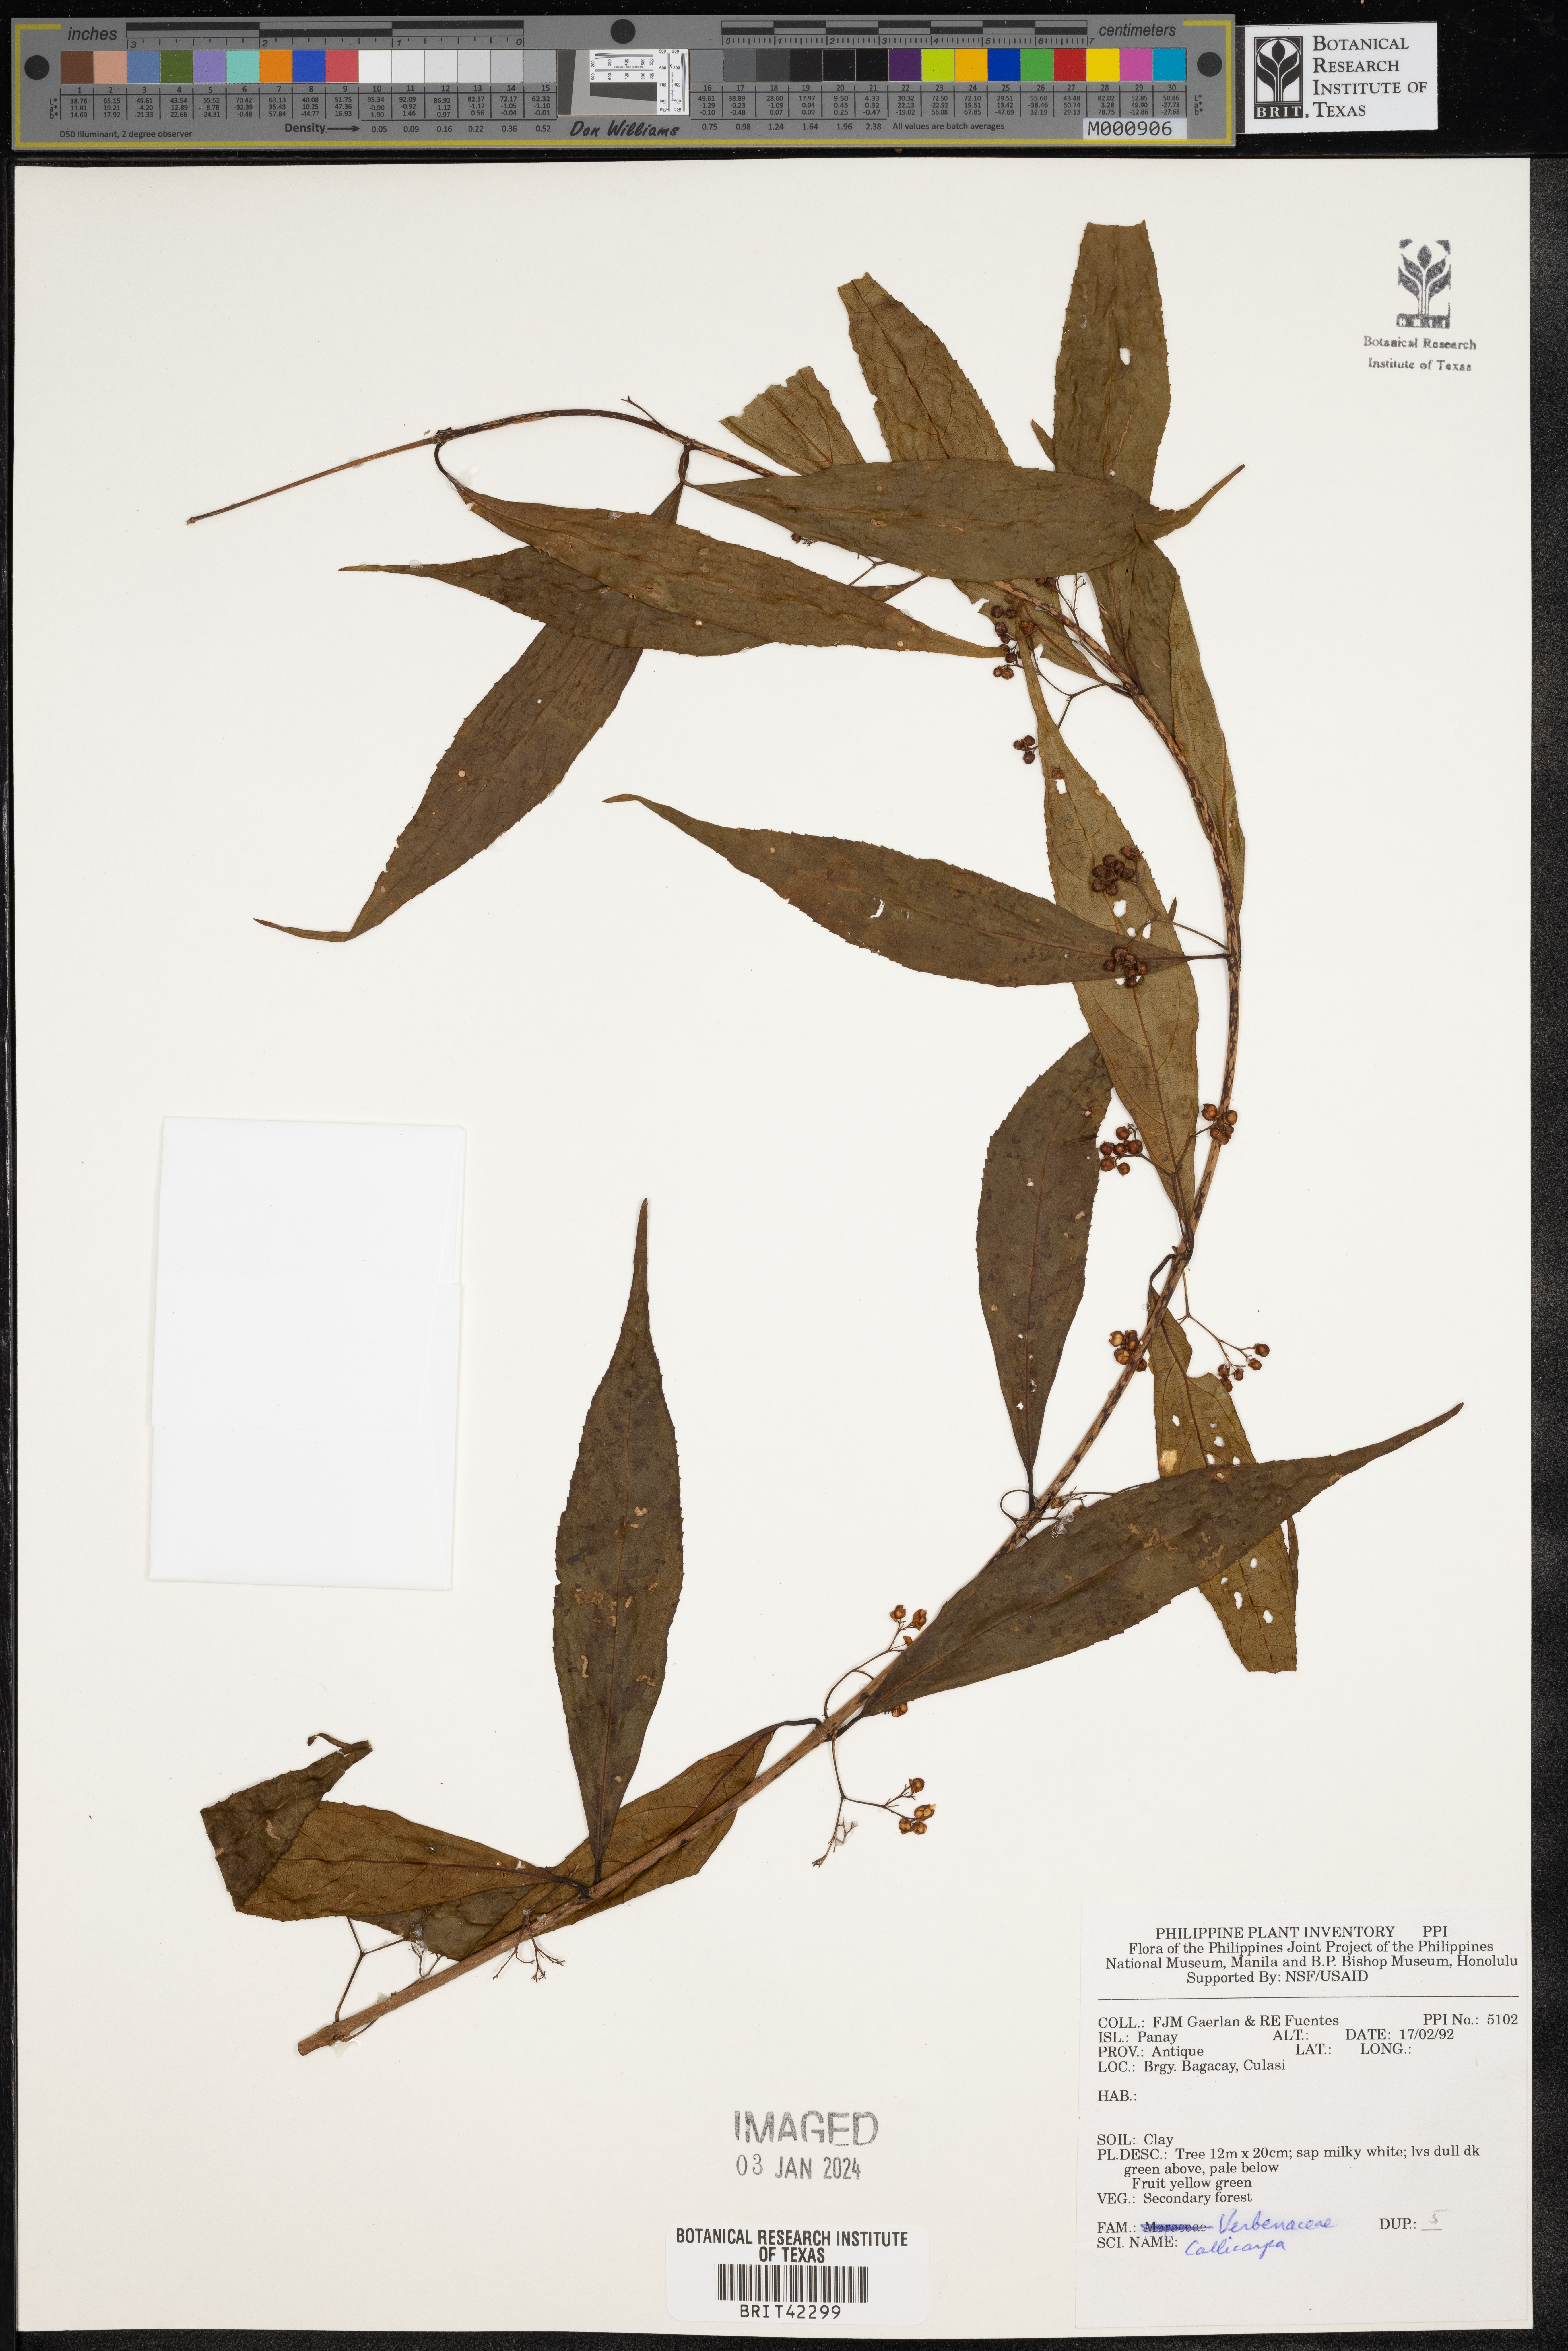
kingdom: Plantae
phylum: Tracheophyta
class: Magnoliopsida
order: Lamiales
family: Lamiaceae
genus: Callicarpa
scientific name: Callicarpa
